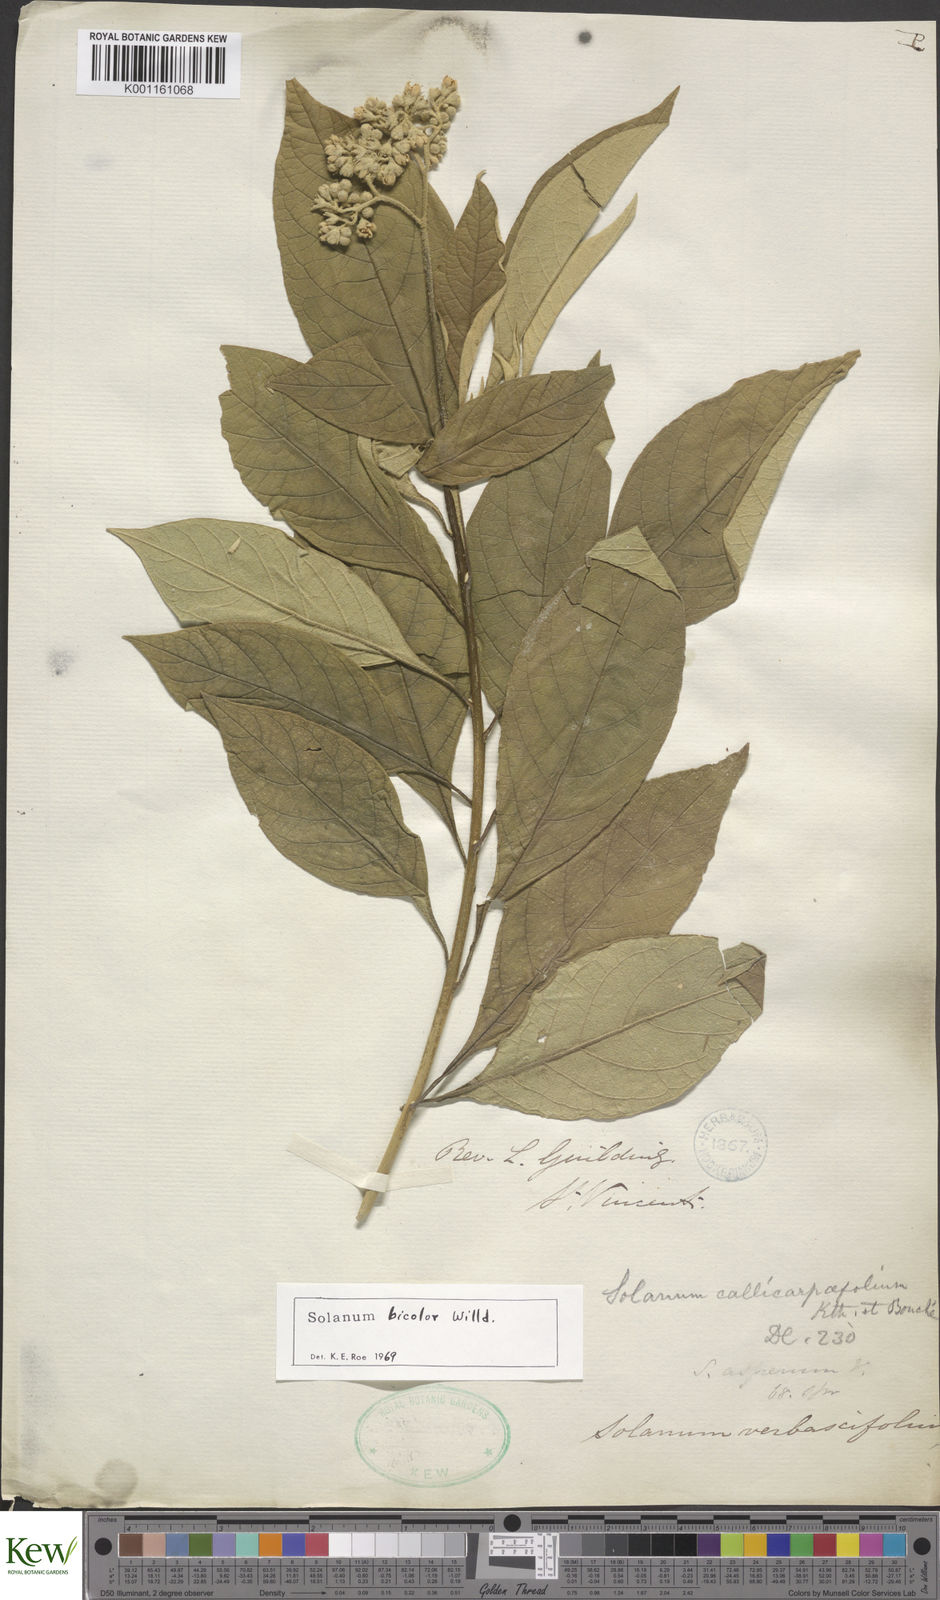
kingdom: Plantae
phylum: Tracheophyta
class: Magnoliopsida
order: Solanales
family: Solanaceae
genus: Solanum
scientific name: Solanum bicolor
